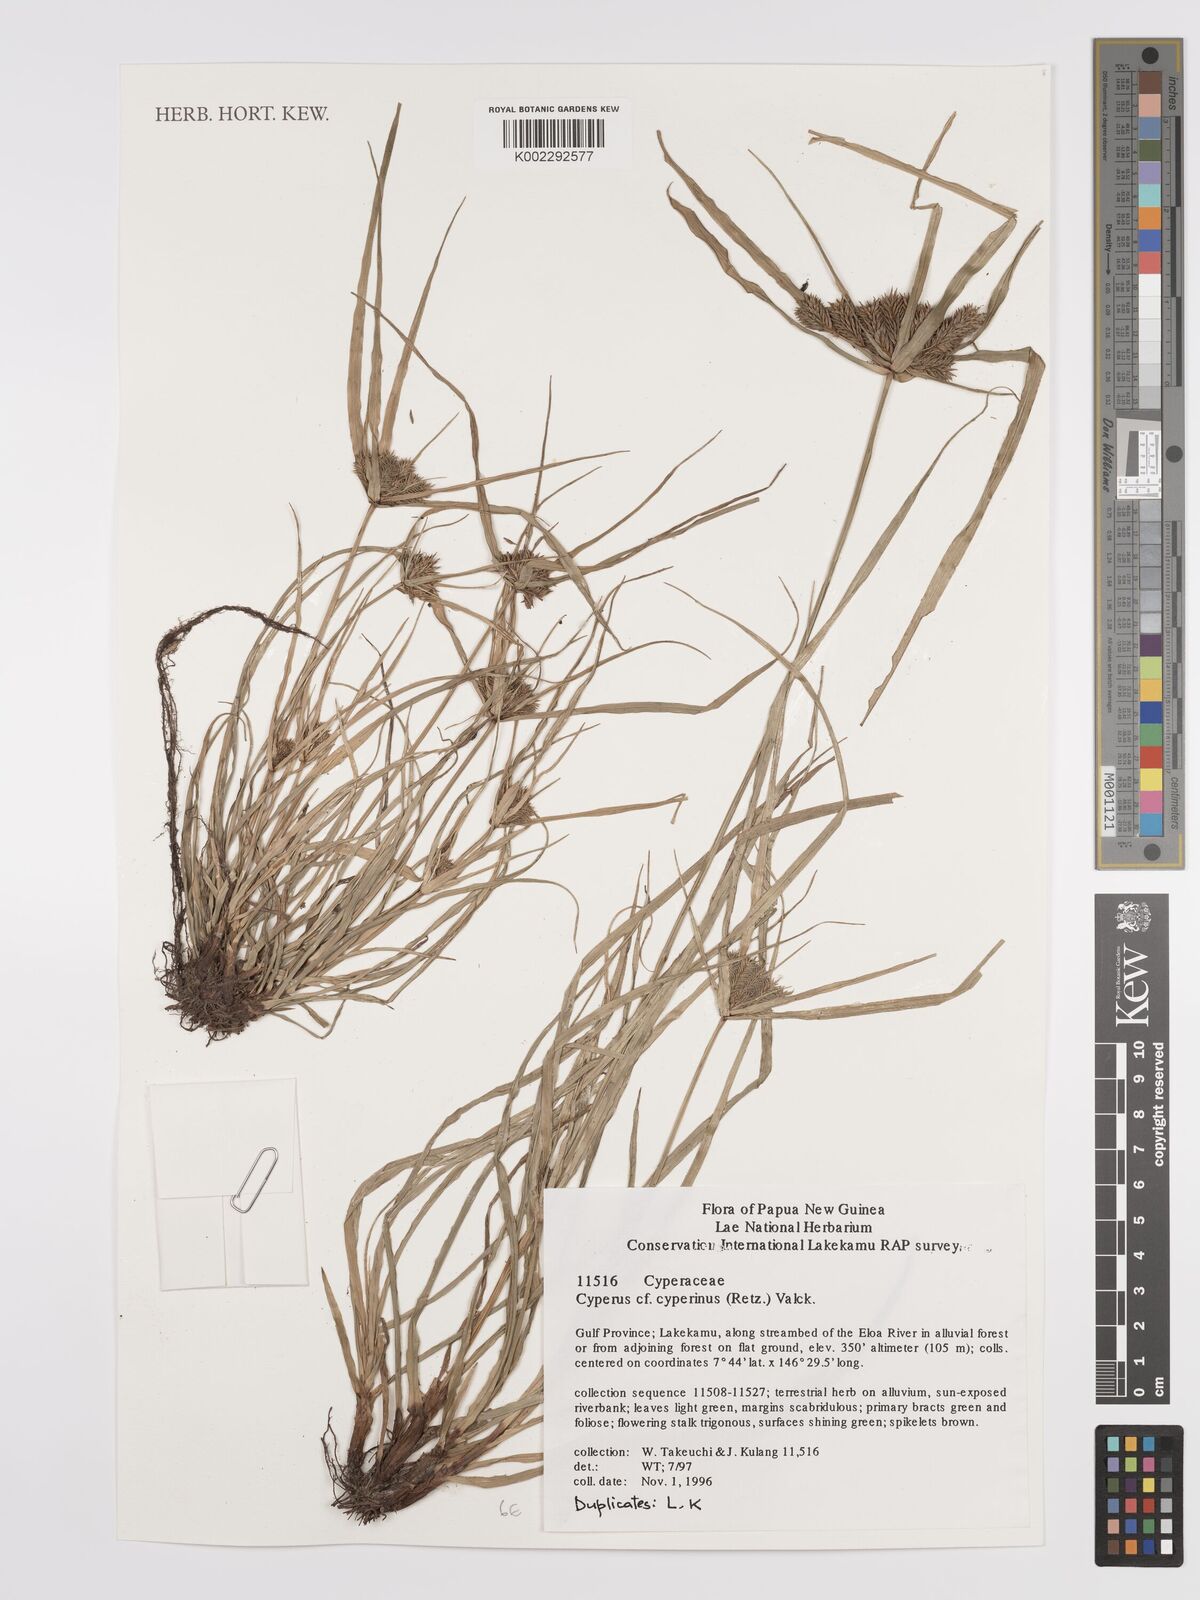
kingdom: Plantae
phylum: Tracheophyta
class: Liliopsida
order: Poales
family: Cyperaceae
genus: Cyperus
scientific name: Cyperus cyperoides
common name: Pacific island flat sedge
